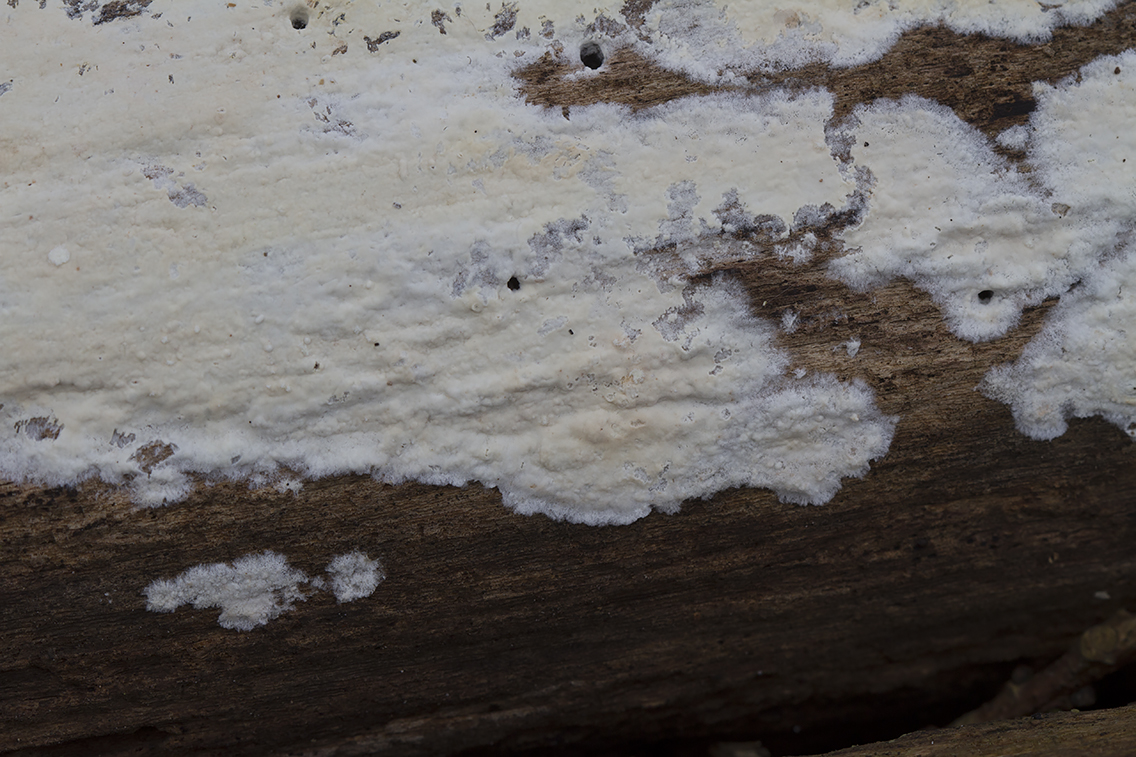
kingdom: Fungi
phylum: Basidiomycota
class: Agaricomycetes
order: Agaricales
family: Cyphellaceae
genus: Granulobasidium
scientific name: Granulobasidium vellereum
